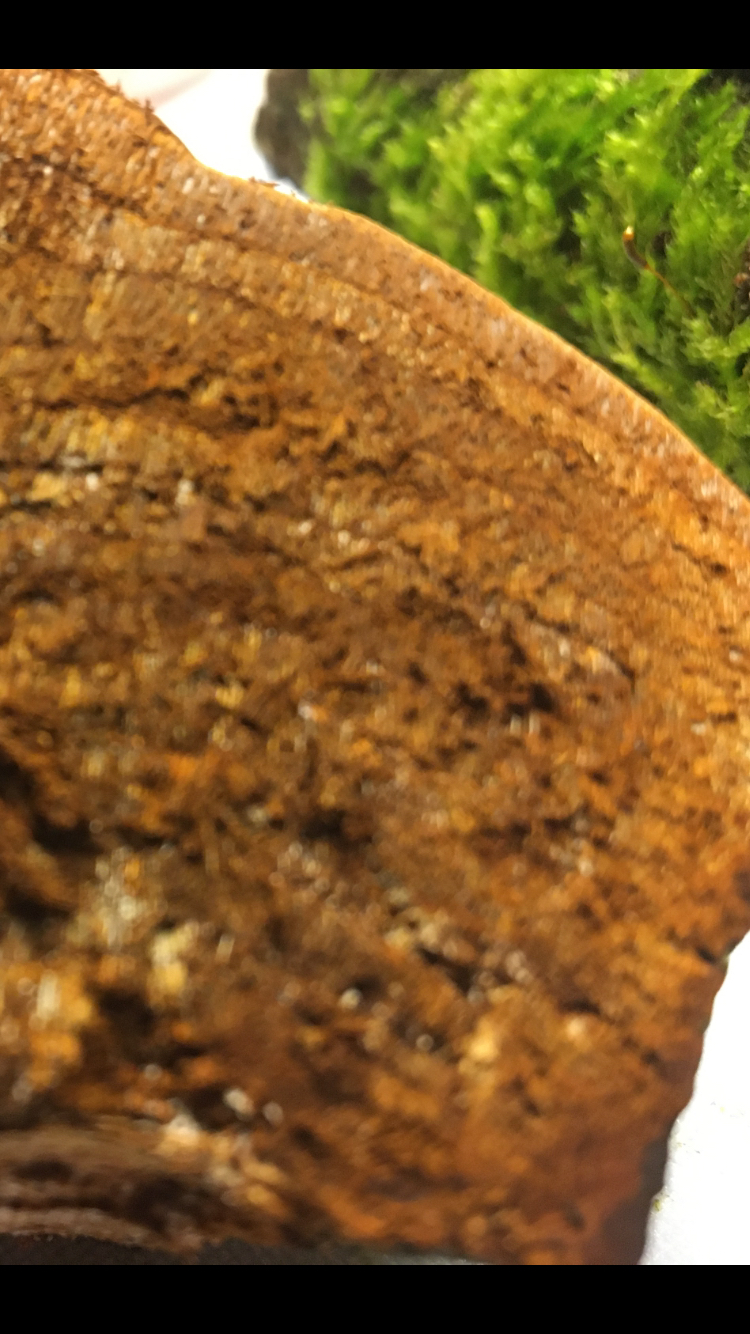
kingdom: Fungi
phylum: Basidiomycota
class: Agaricomycetes
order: Hymenochaetales
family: Hymenochaetaceae
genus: Phellinus
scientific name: Phellinus pomaceus
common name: blomme-ildporesvamp
